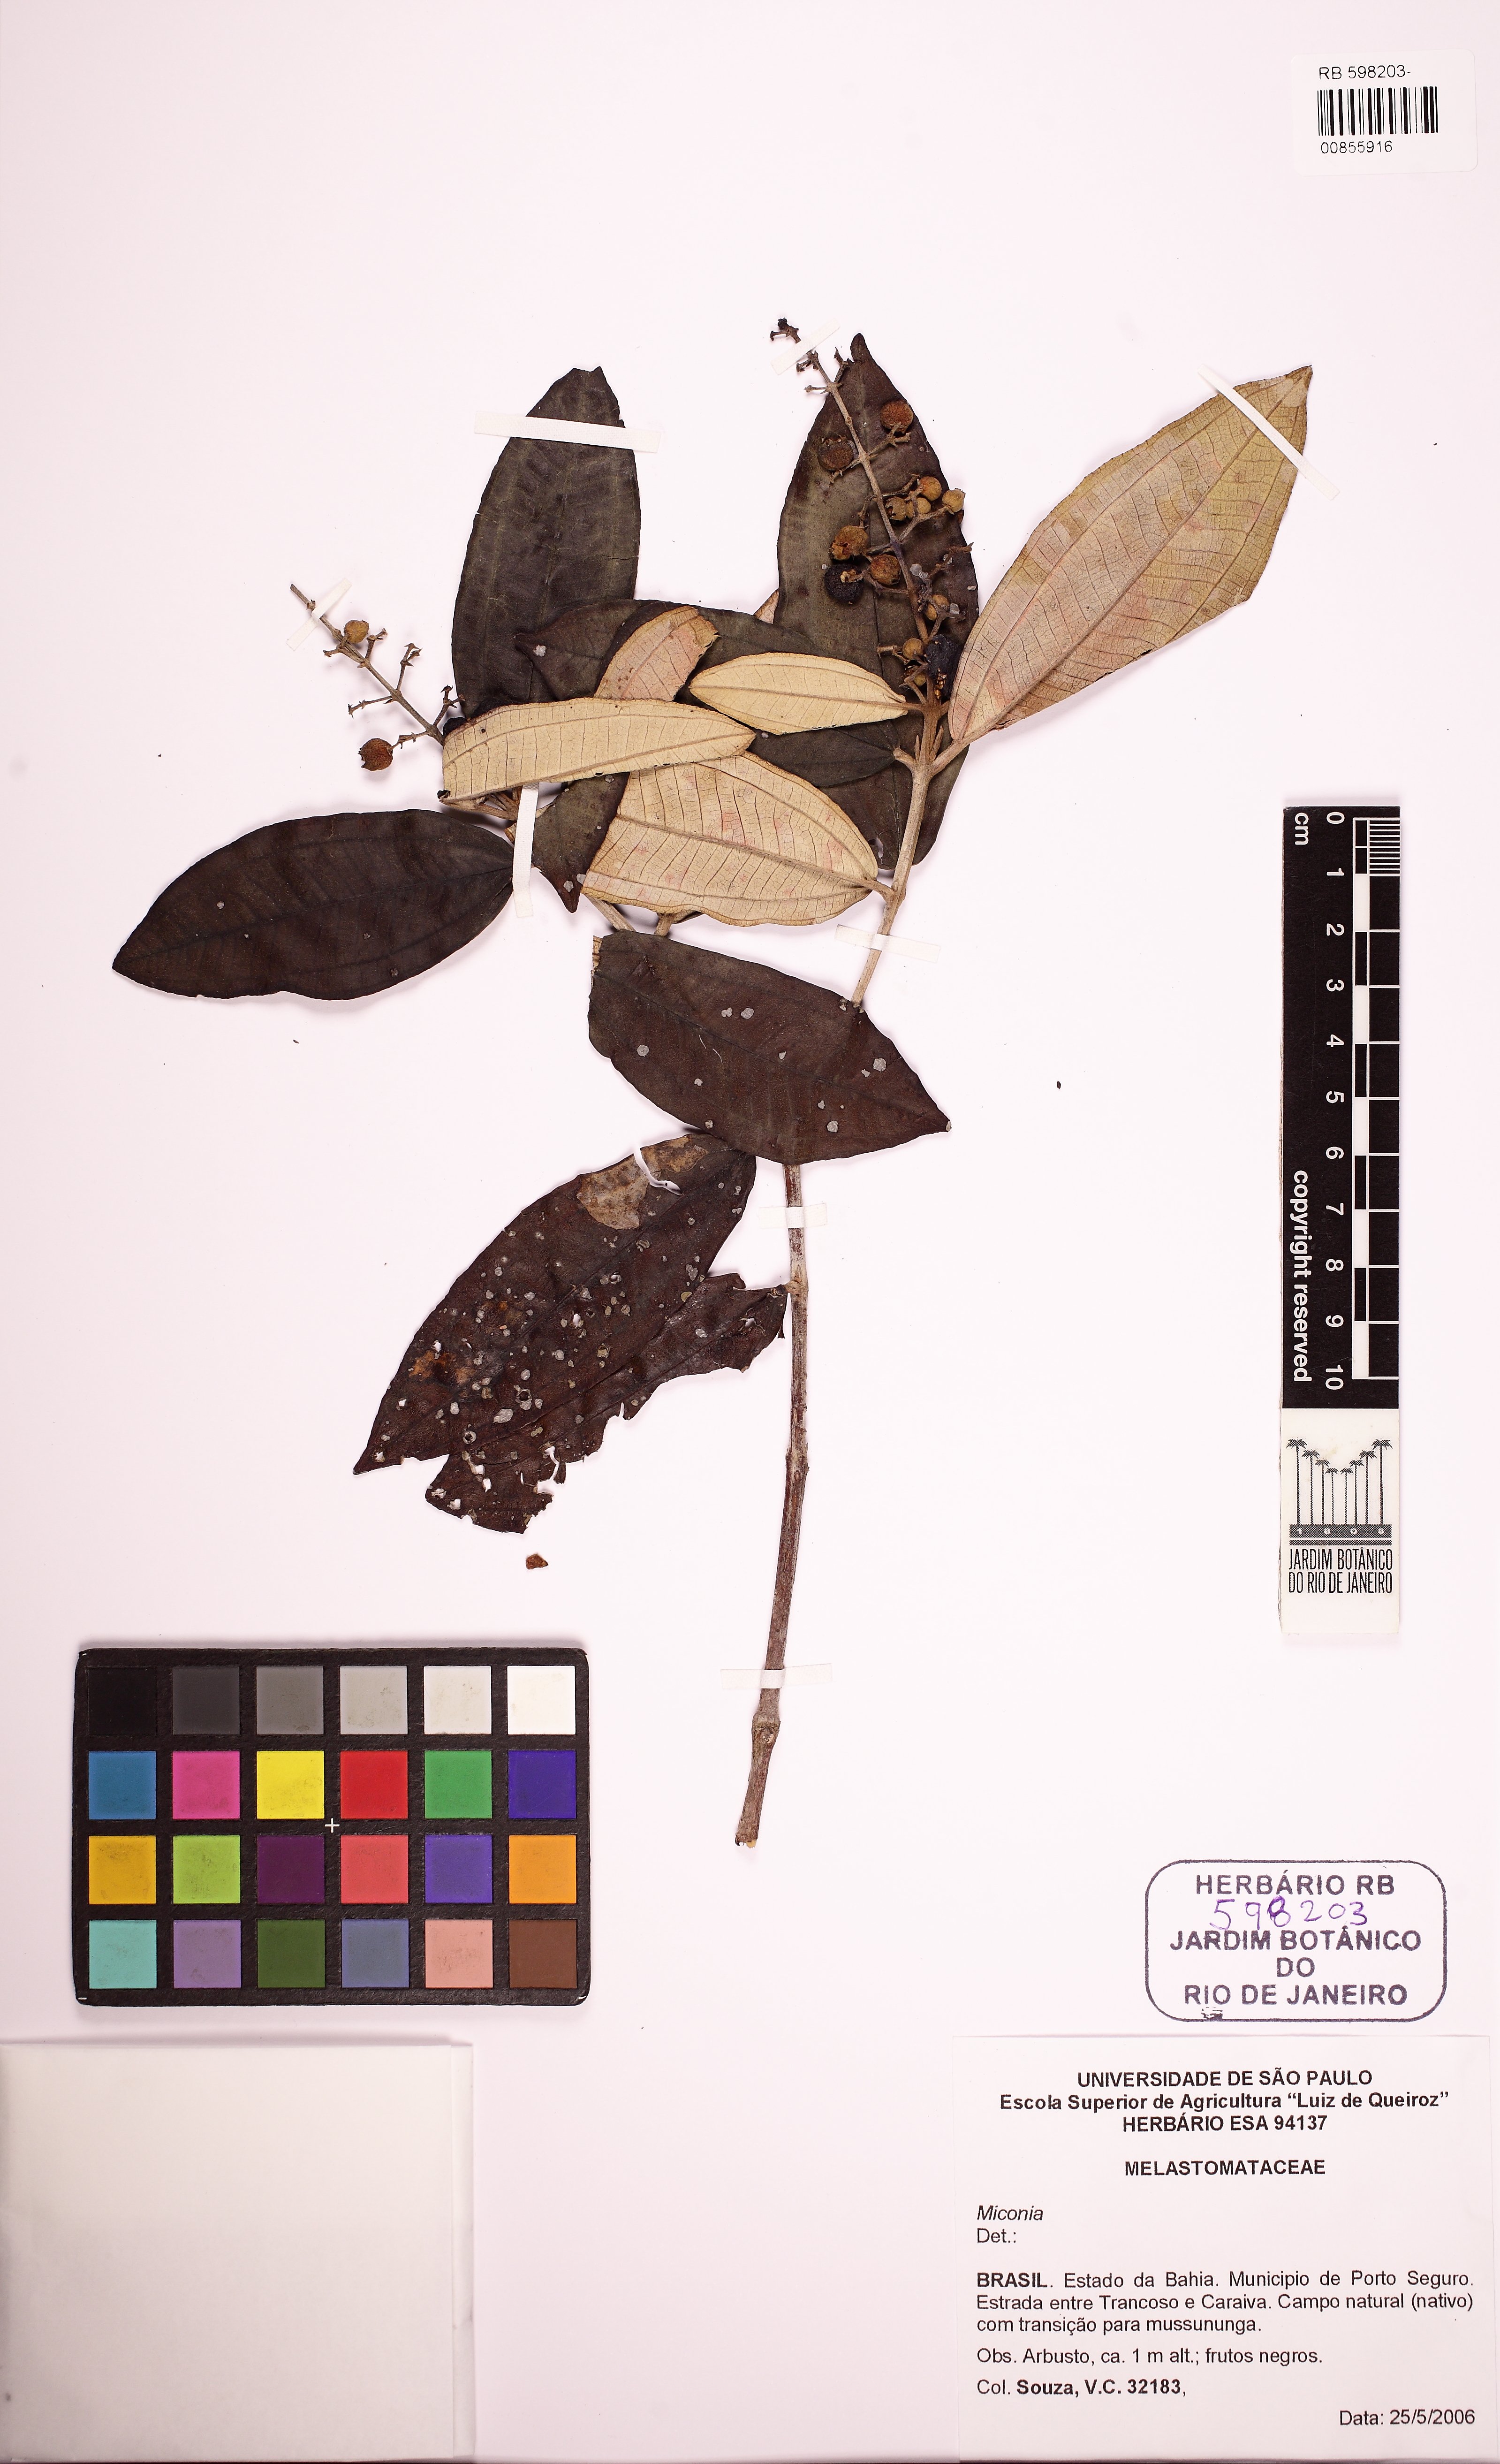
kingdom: Plantae
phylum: Tracheophyta
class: Magnoliopsida
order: Myrtales
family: Melastomataceae
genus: Miconia
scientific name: Miconia stenostachya
